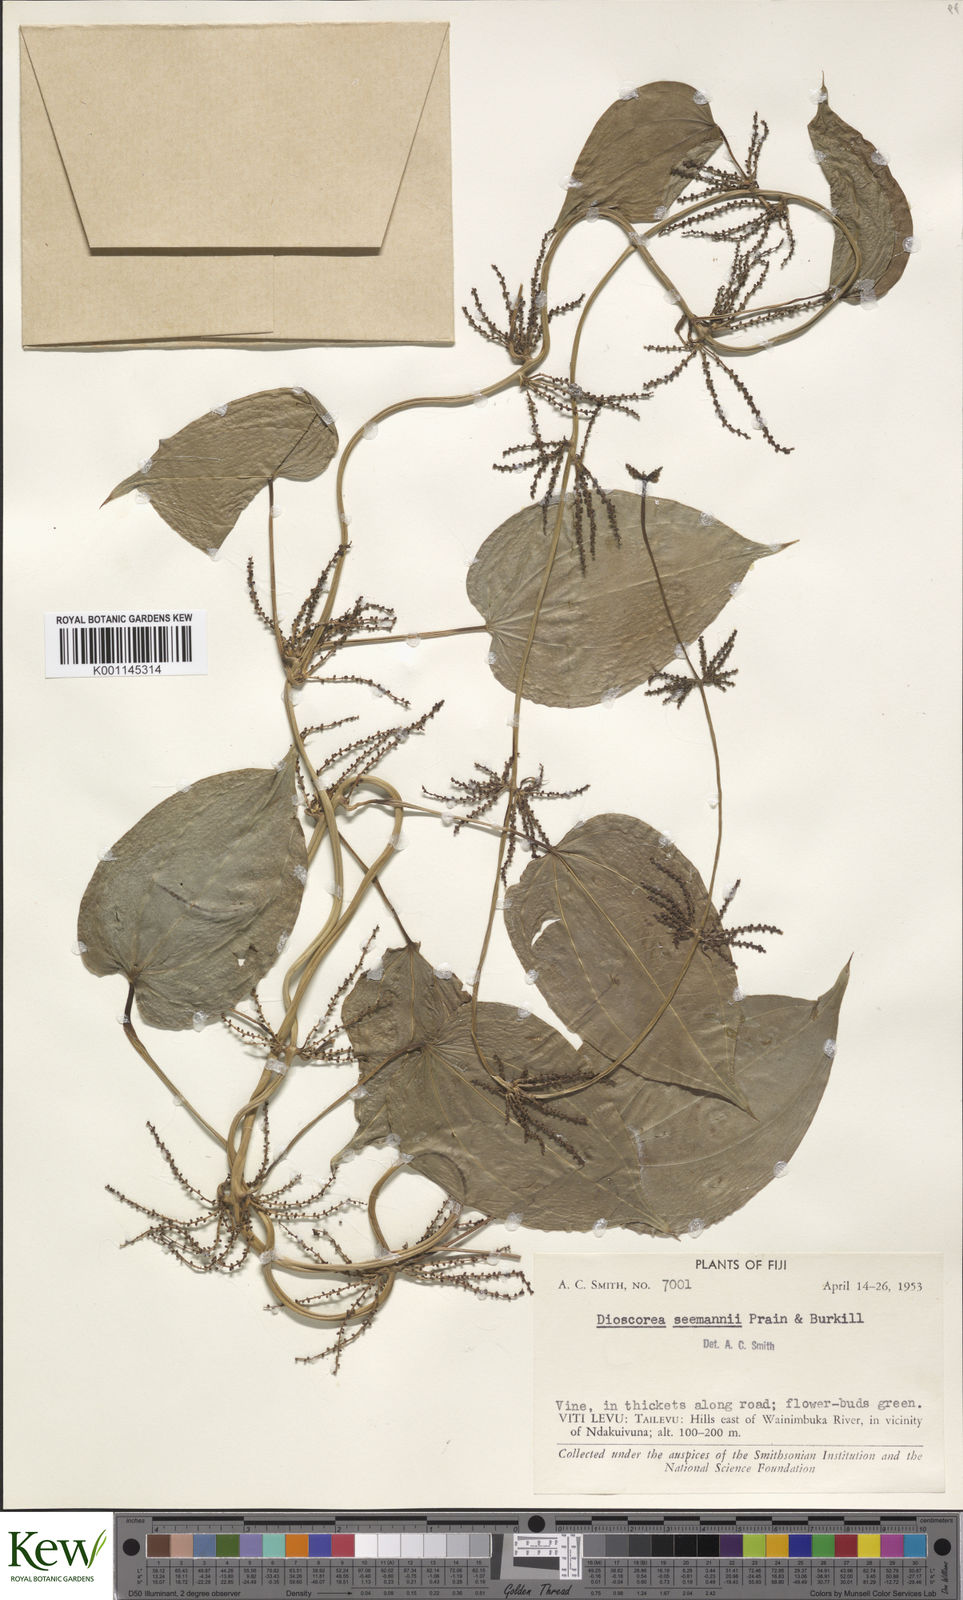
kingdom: Plantae
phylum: Tracheophyta
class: Liliopsida
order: Dioscoreales
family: Dioscoreaceae
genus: Dioscorea
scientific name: Dioscorea nummularia
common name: Pacific yam
